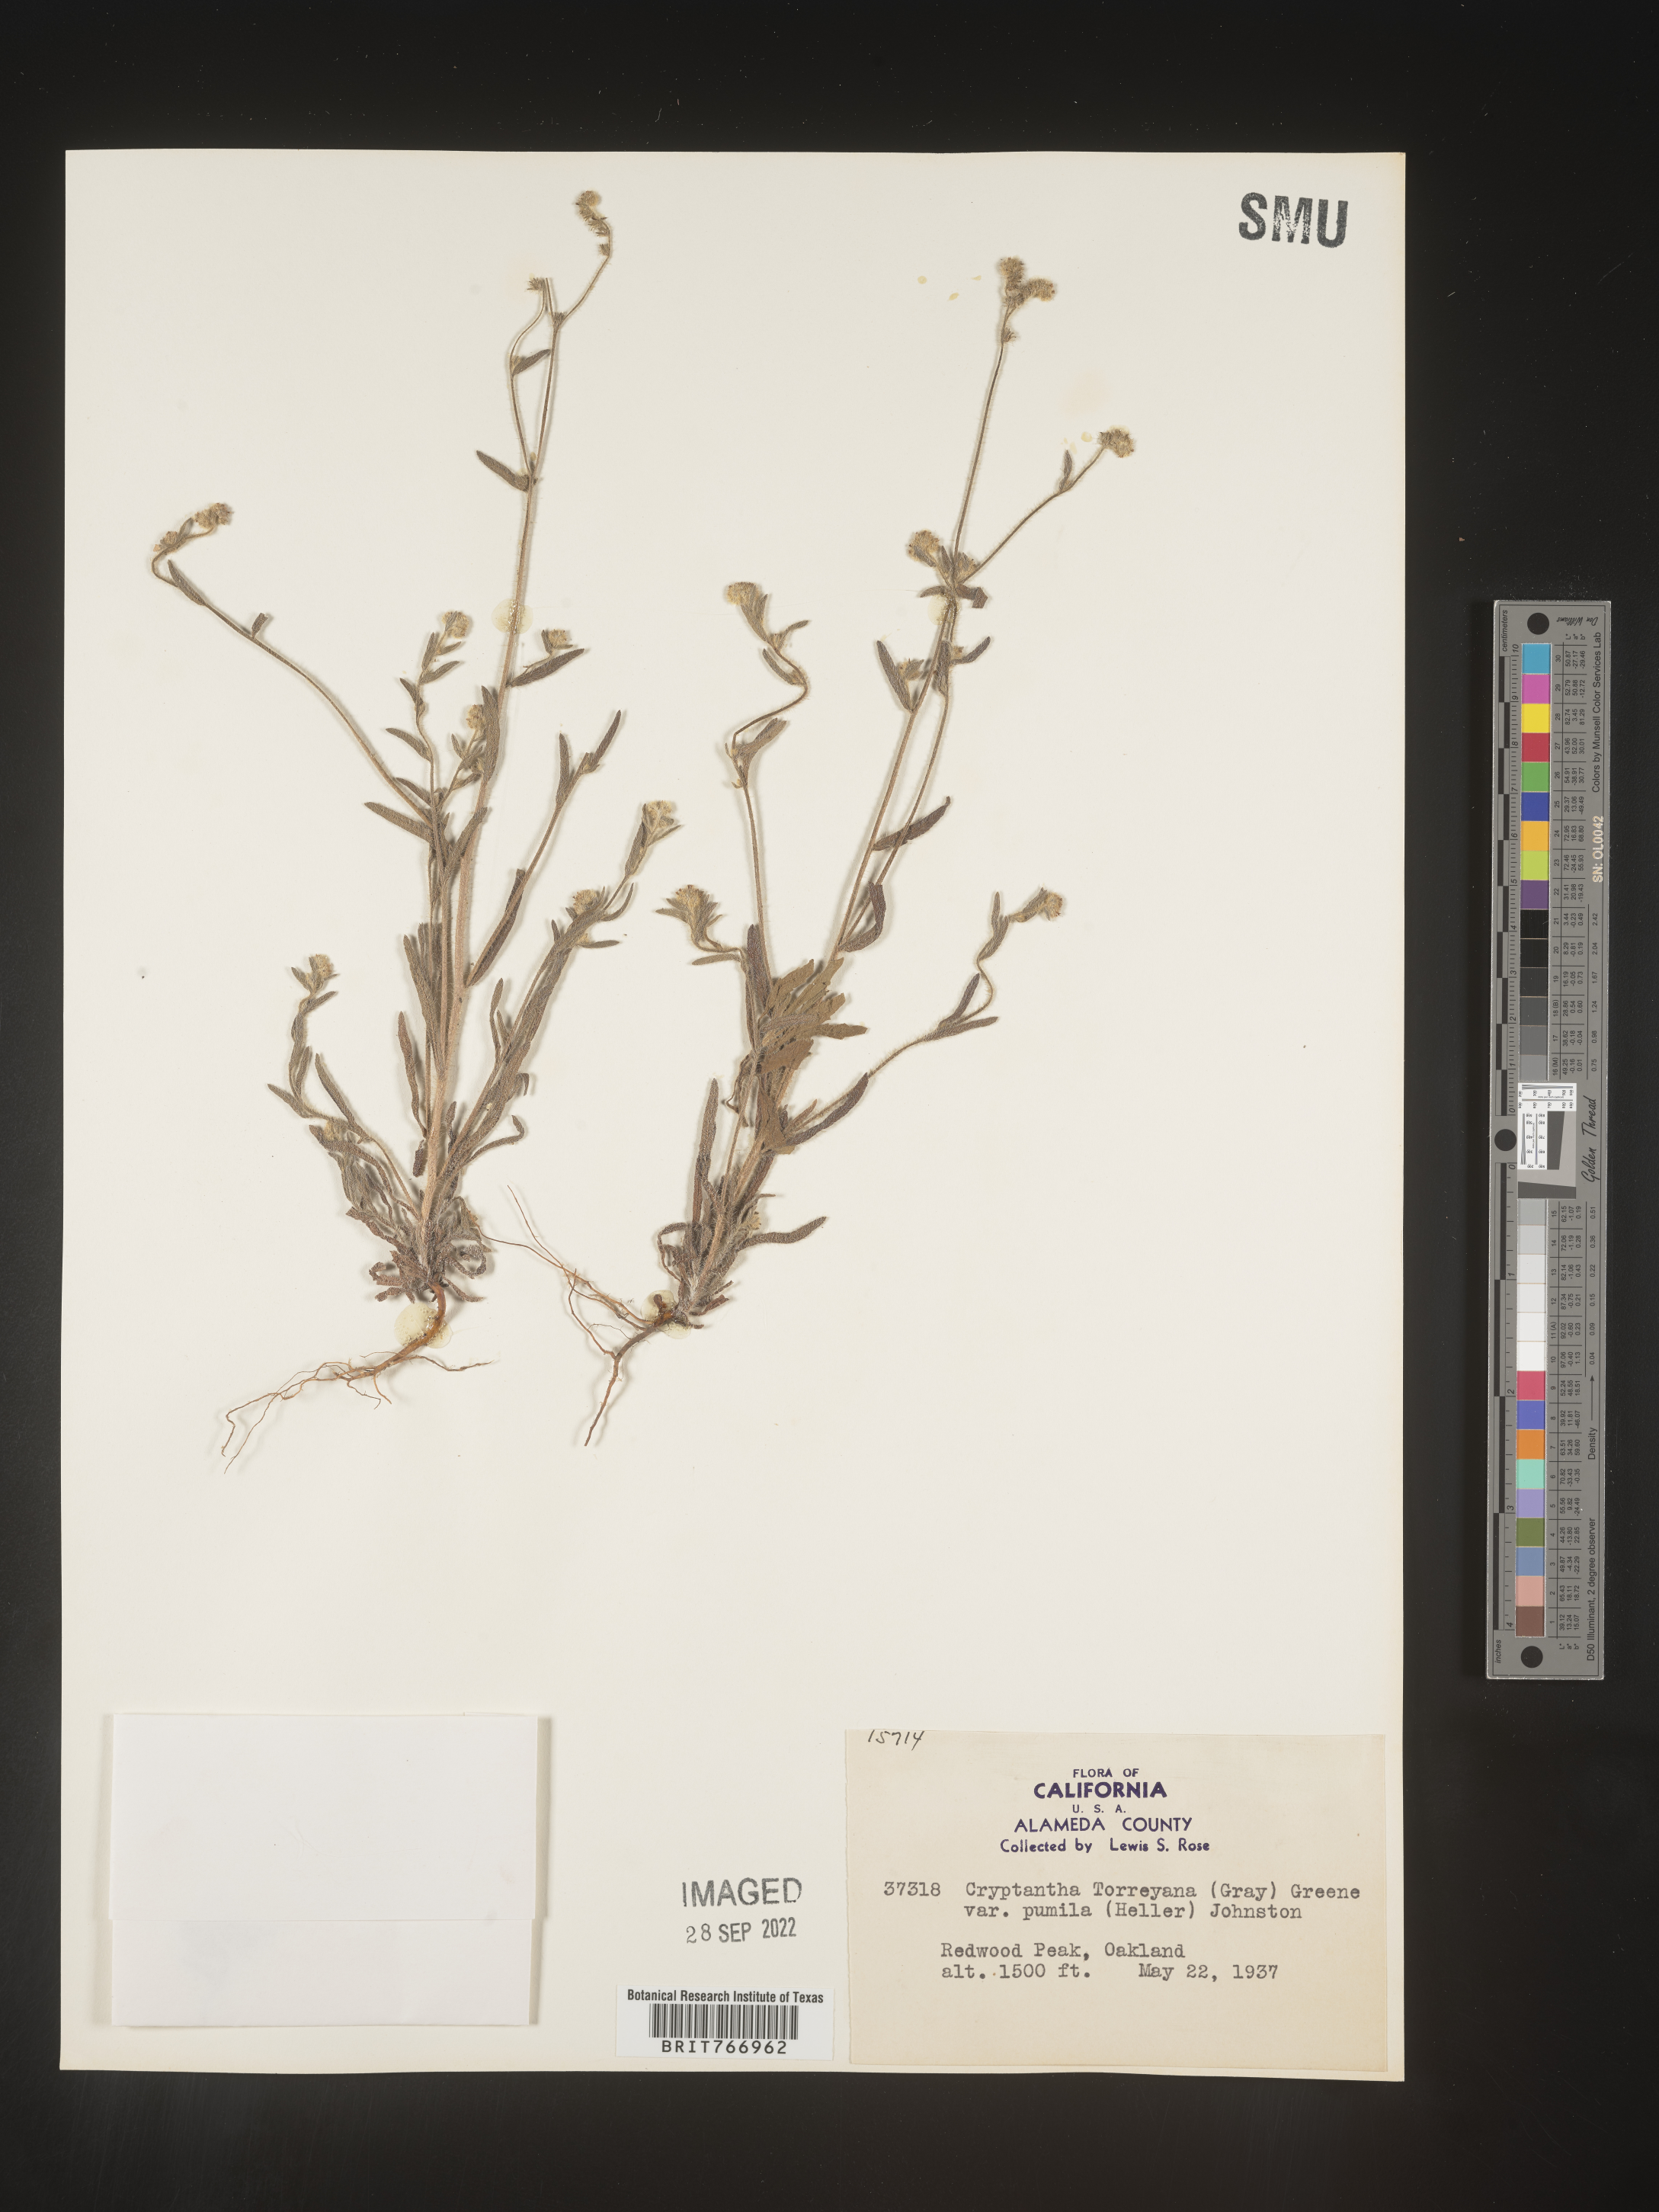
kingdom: Plantae
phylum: Tracheophyta
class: Magnoliopsida
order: Boraginales
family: Boraginaceae
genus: Cryptantha
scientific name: Cryptantha
